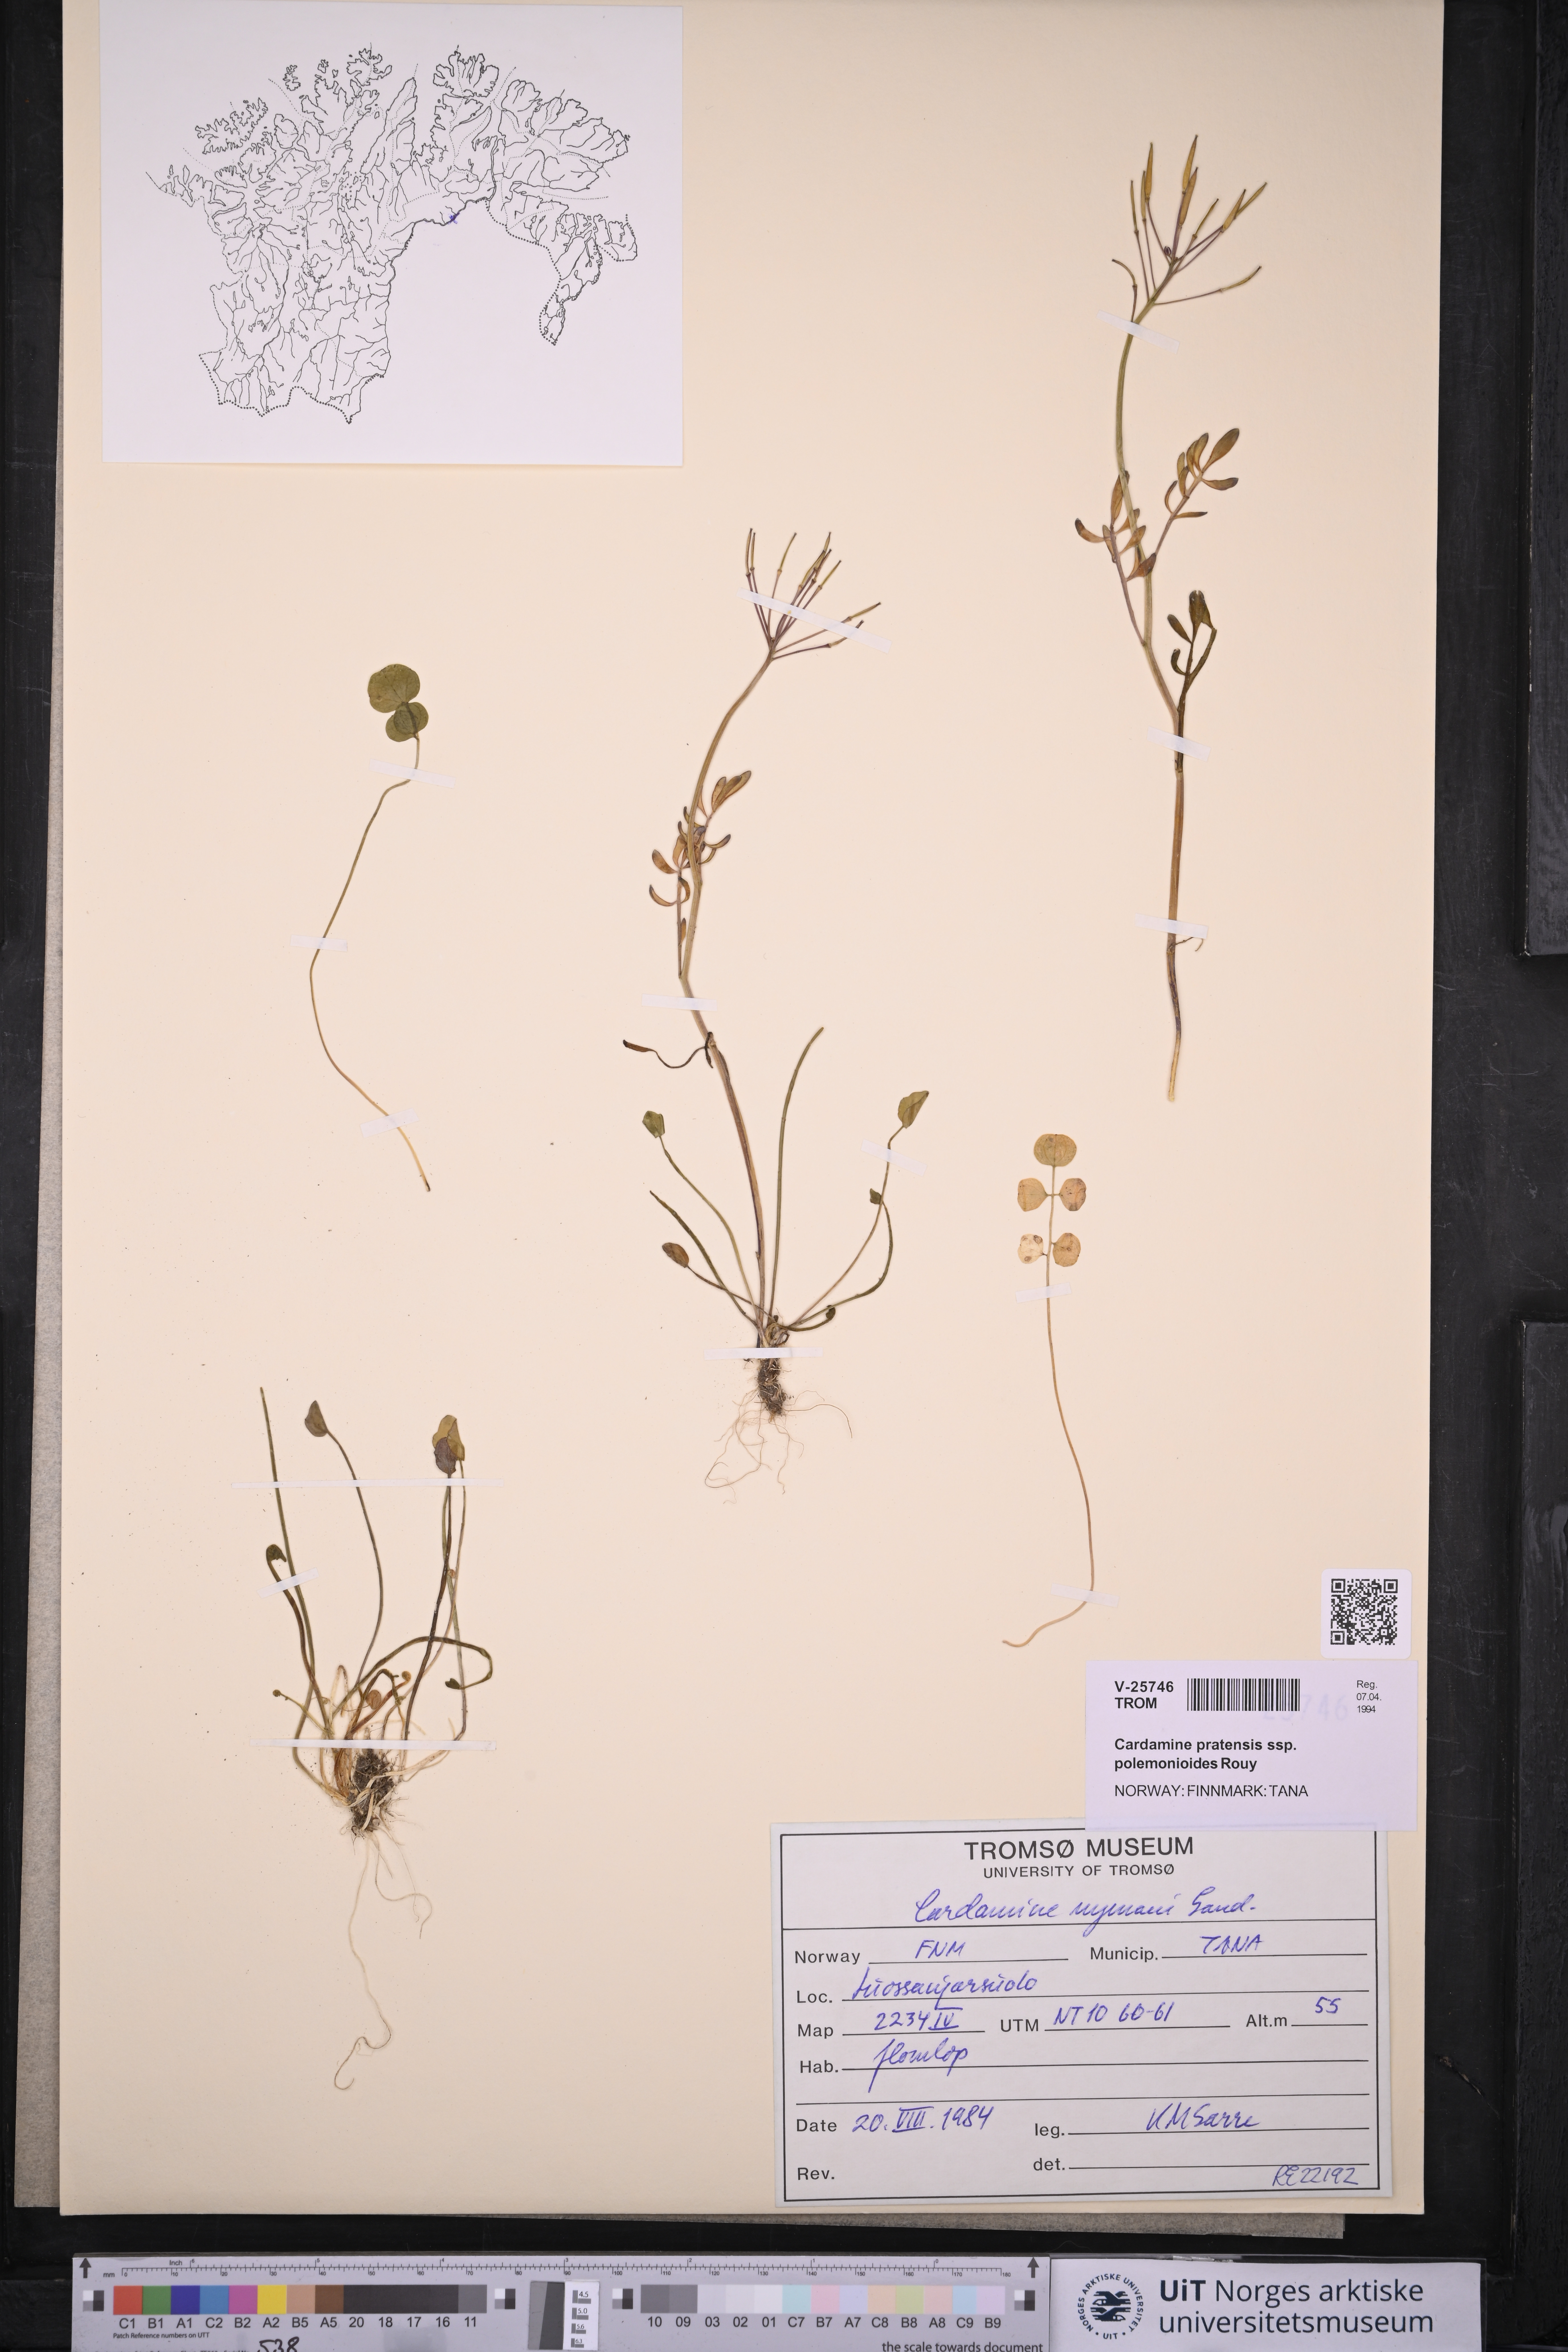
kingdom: Plantae
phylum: Tracheophyta
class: Magnoliopsida
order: Brassicales
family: Brassicaceae
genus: Cardamine
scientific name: Cardamine nymanii
